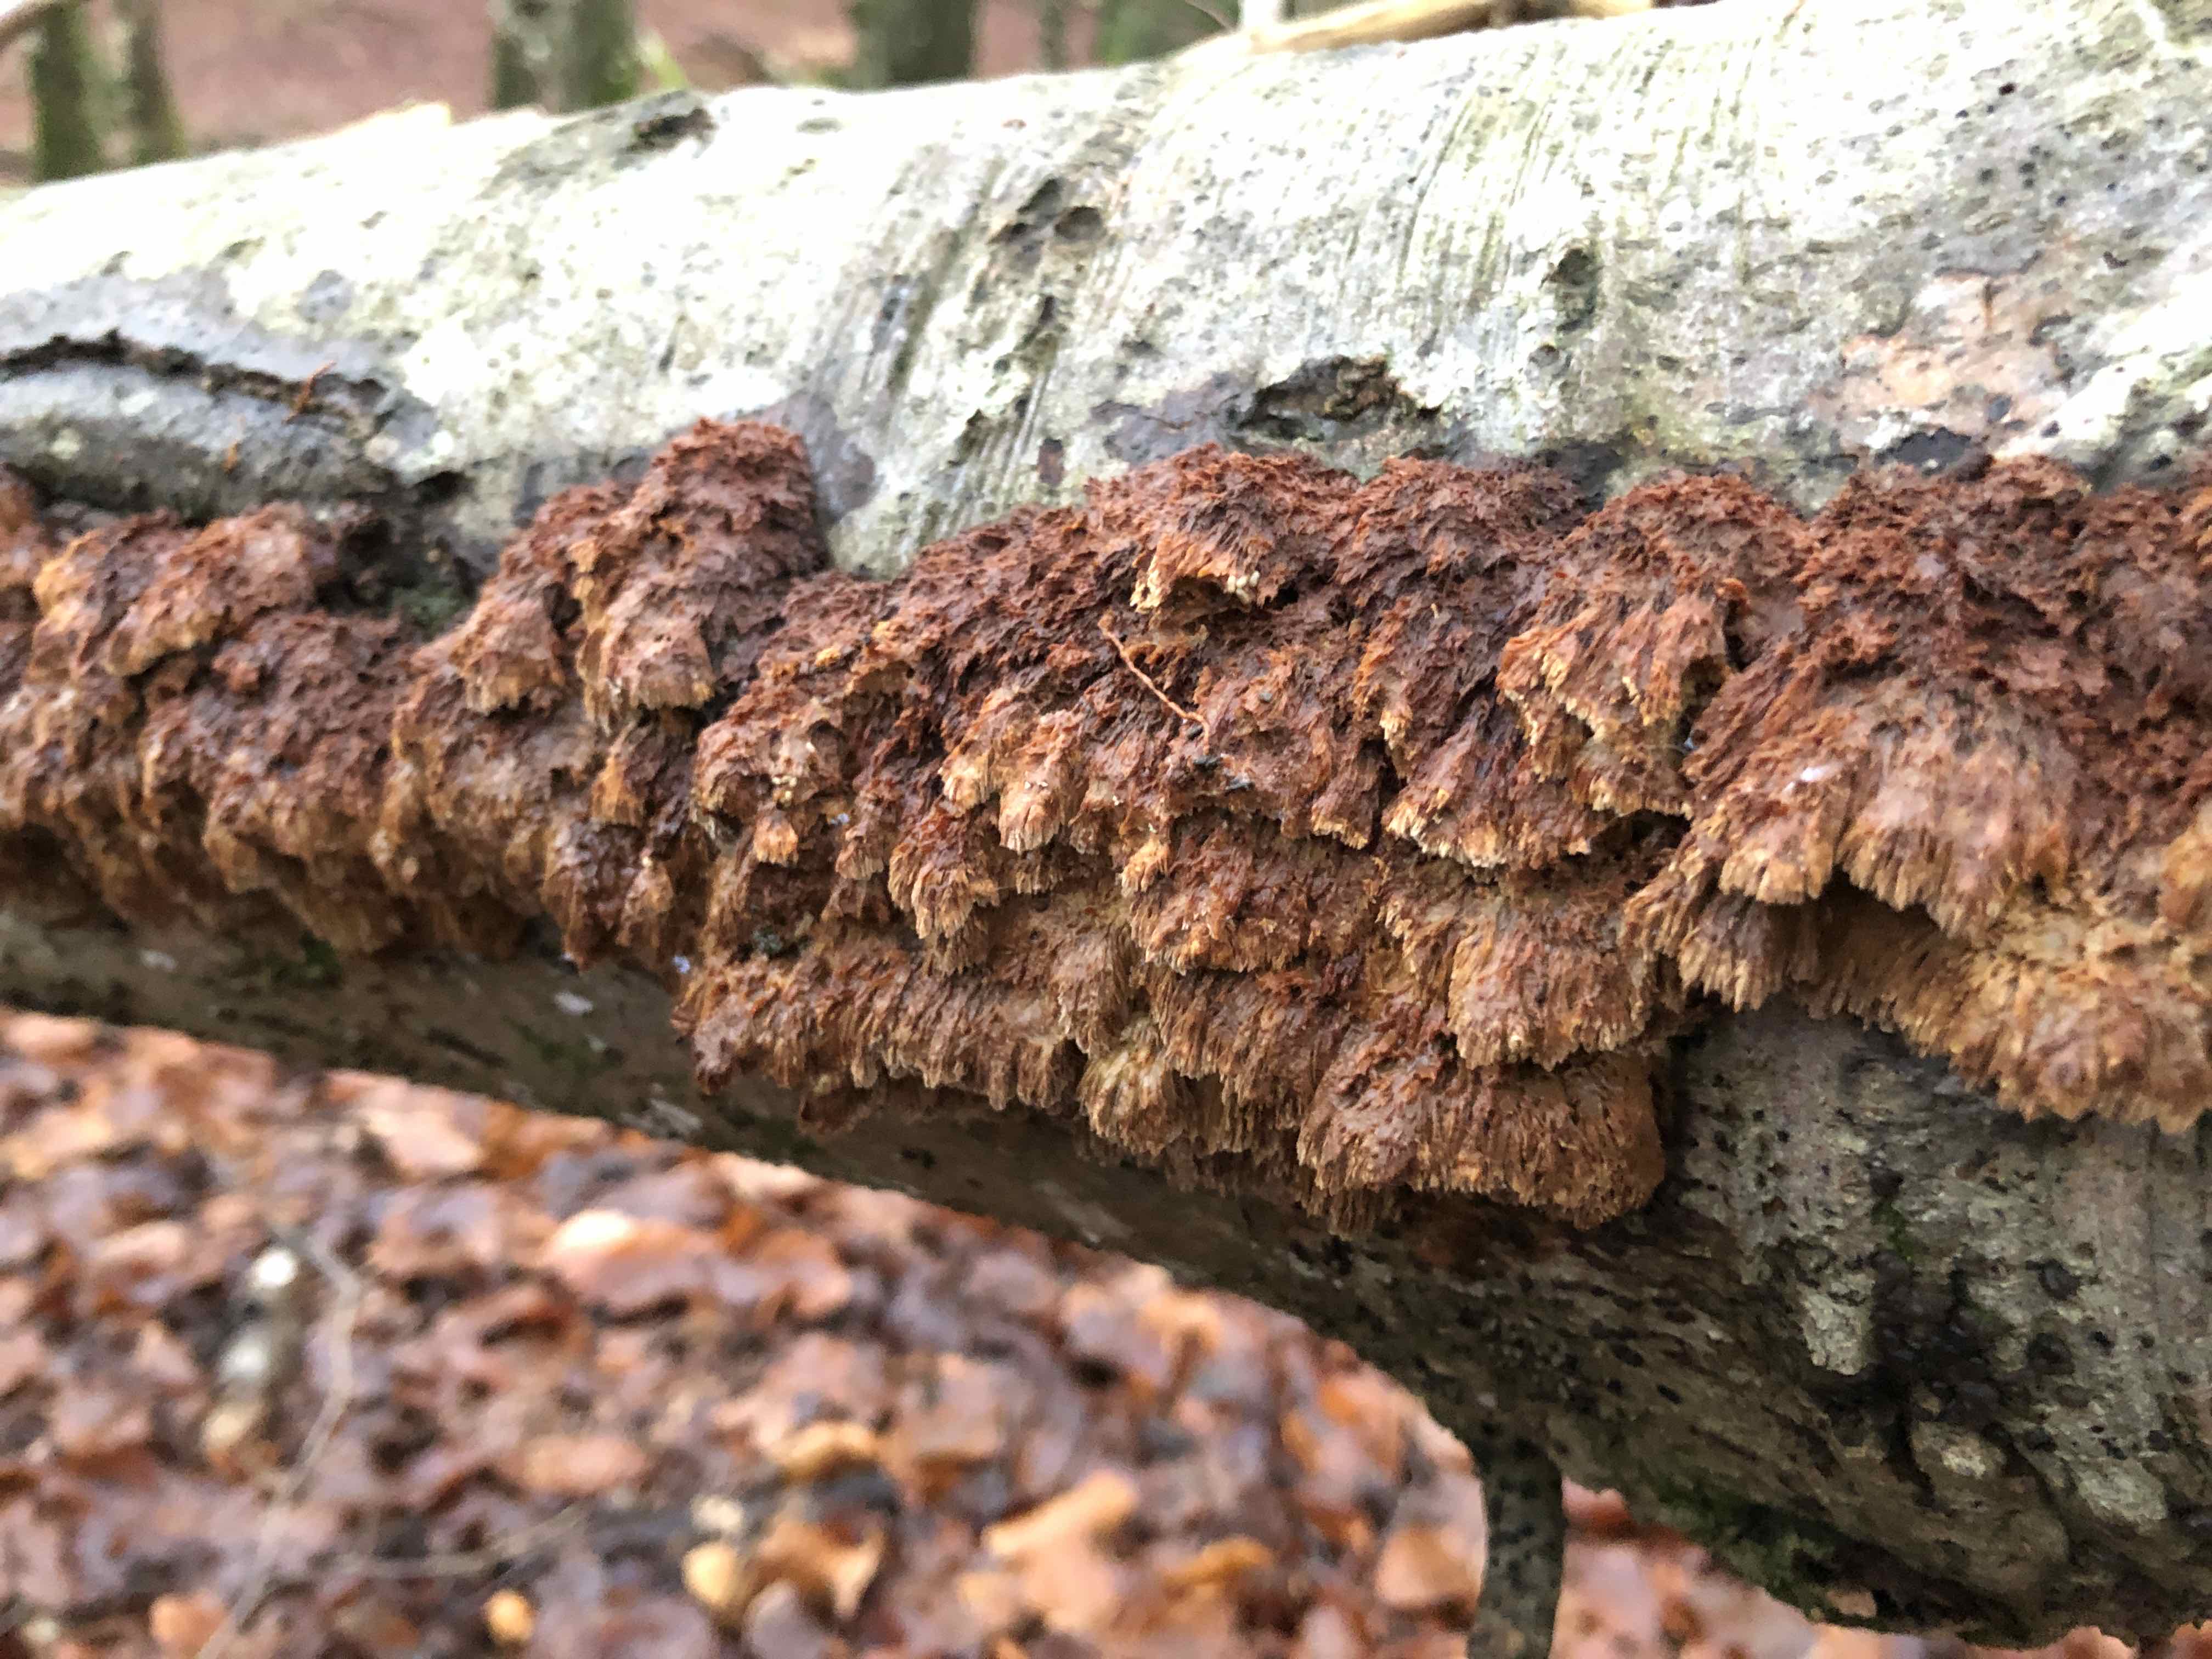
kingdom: Fungi
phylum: Basidiomycota
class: Agaricomycetes
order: Hymenochaetales
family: Hymenochaetaceae
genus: Mensularia
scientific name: Mensularia nodulosa
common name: bøge-spejlporesvamp
